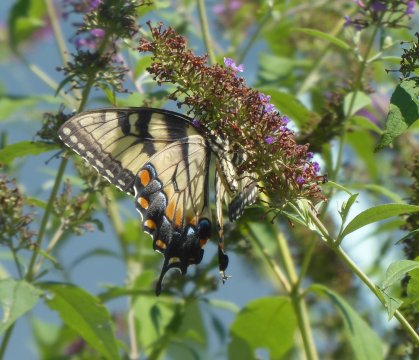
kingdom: Animalia
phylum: Arthropoda
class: Insecta
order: Lepidoptera
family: Papilionidae
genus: Pterourus
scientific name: Pterourus
